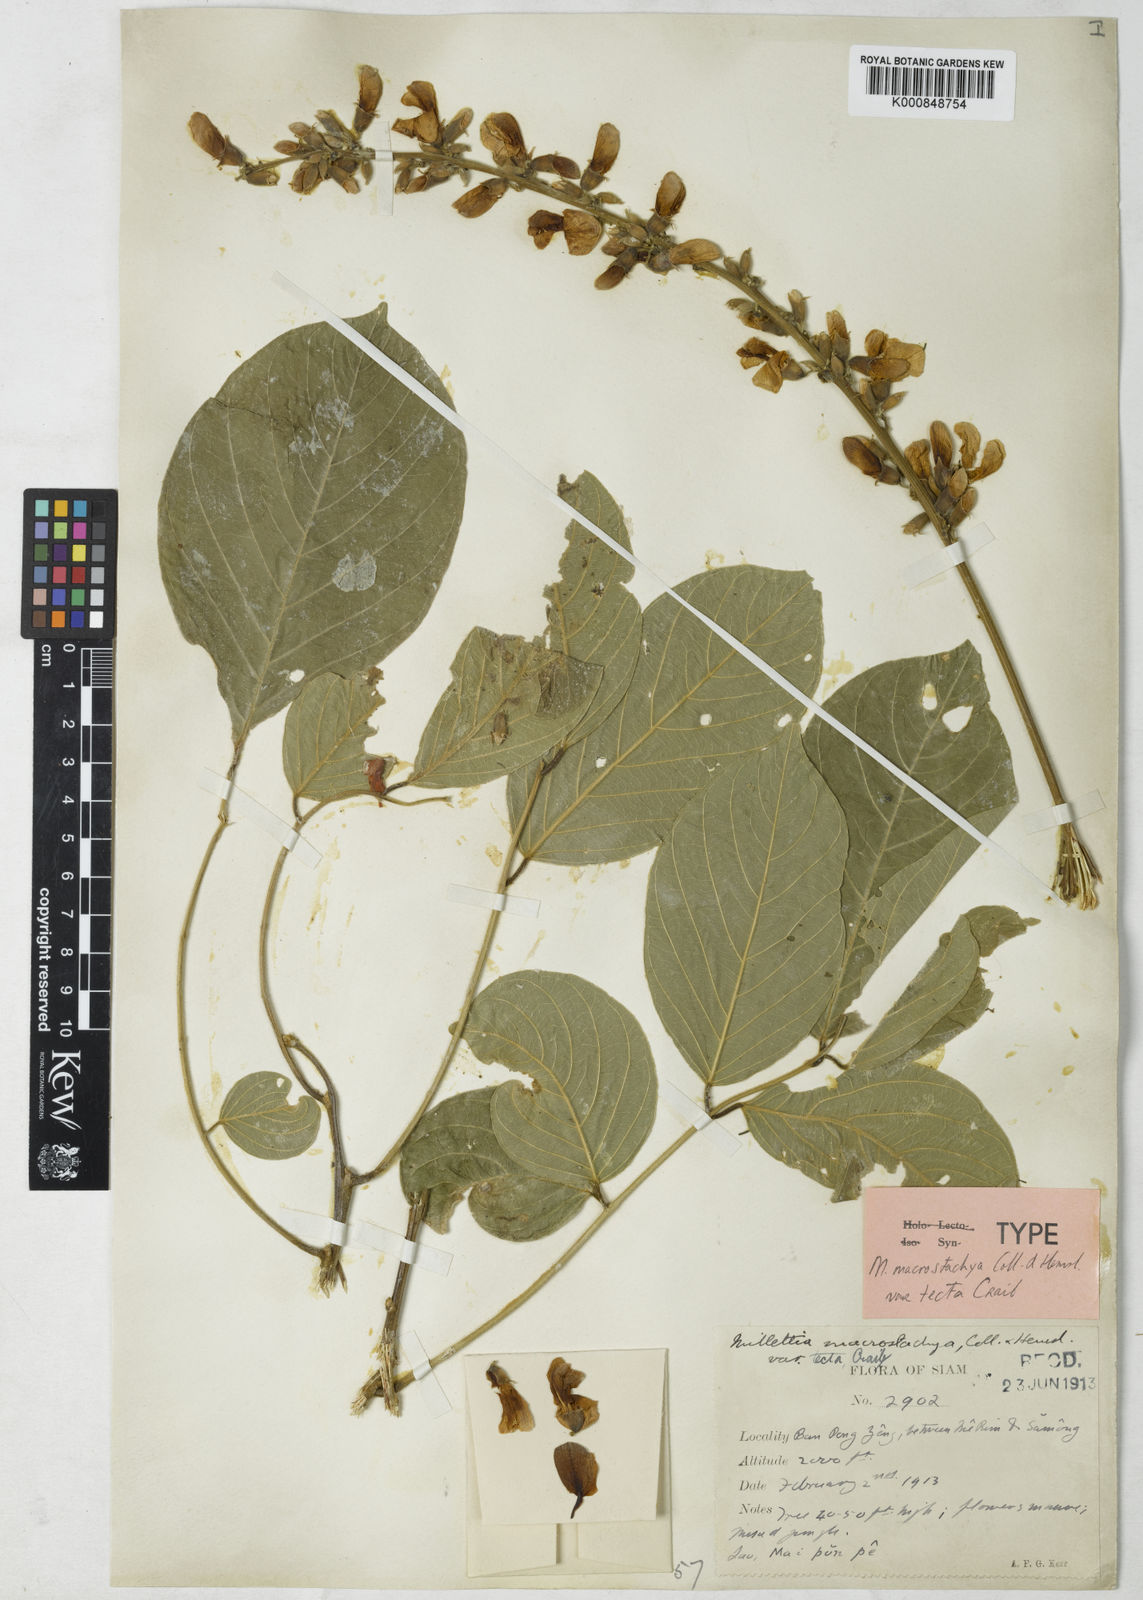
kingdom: Plantae
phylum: Tracheophyta
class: Magnoliopsida
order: Fabales
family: Fabaceae
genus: Millettia
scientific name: Millettia macrostachya
